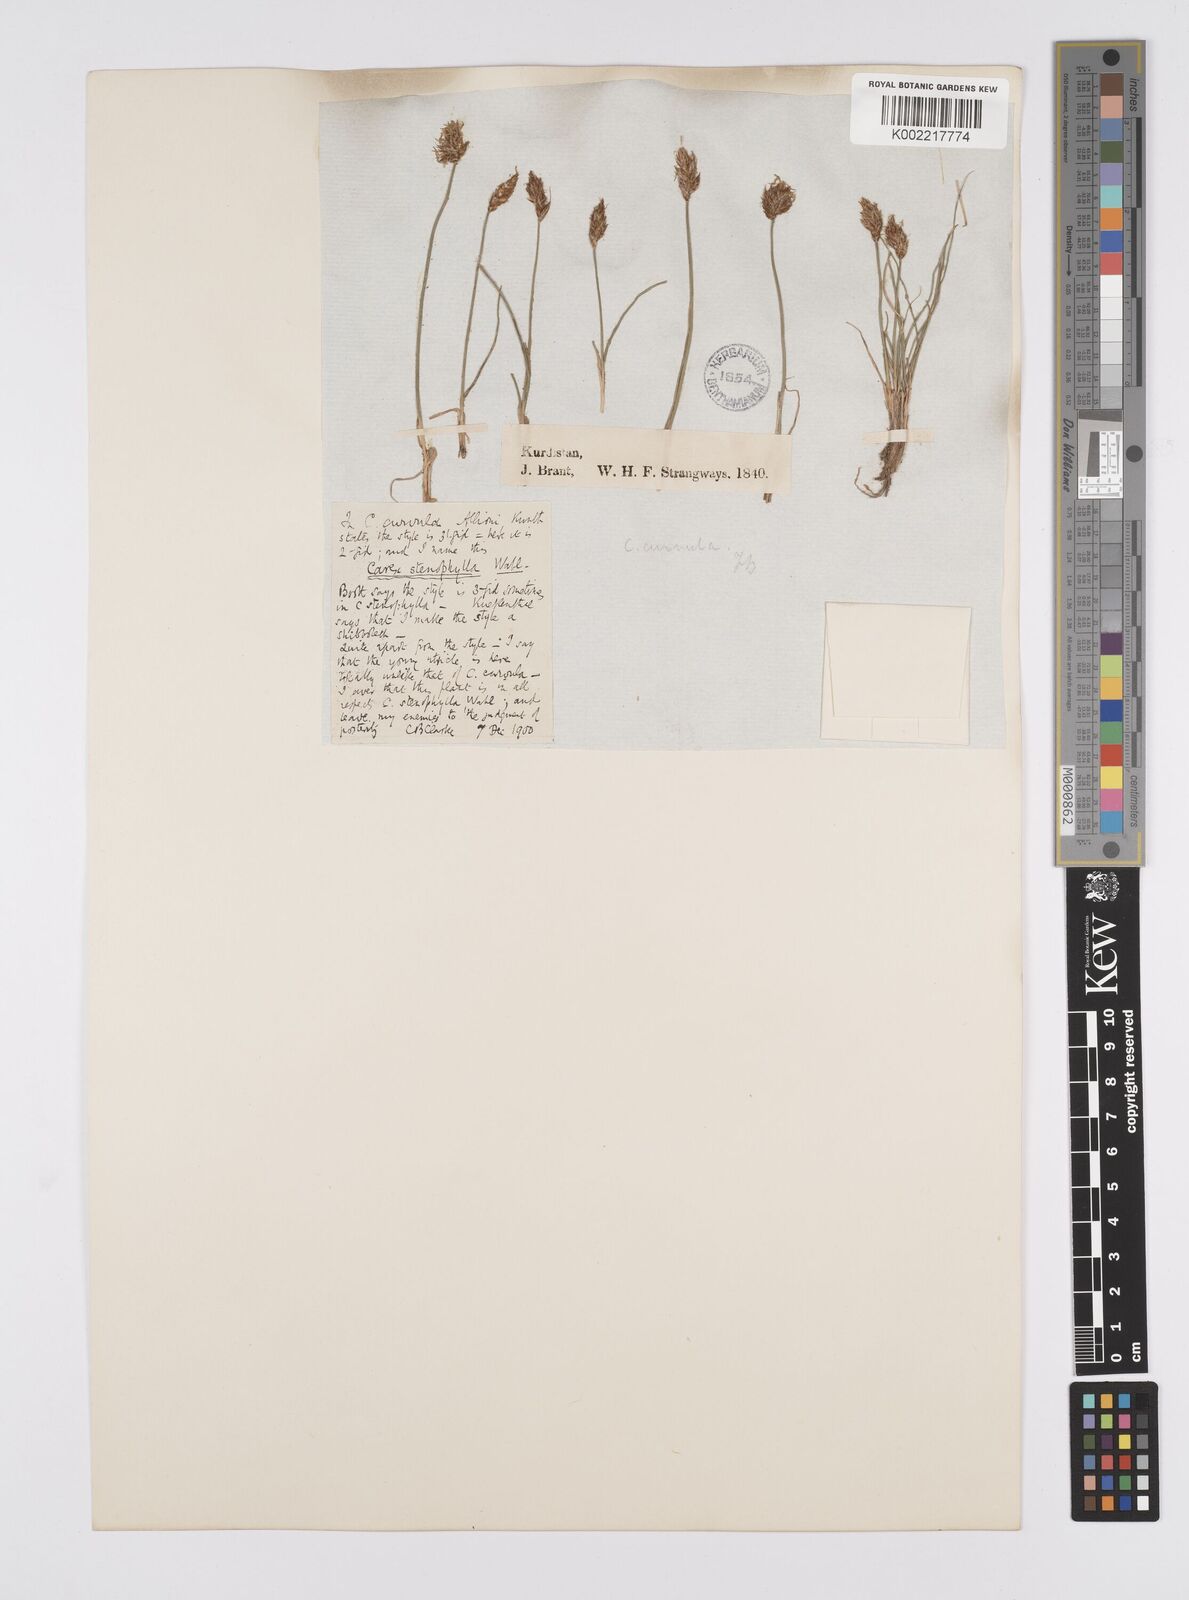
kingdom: Plantae
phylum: Tracheophyta
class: Liliopsida
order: Poales
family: Cyperaceae
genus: Carex
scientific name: Carex stenophylla
